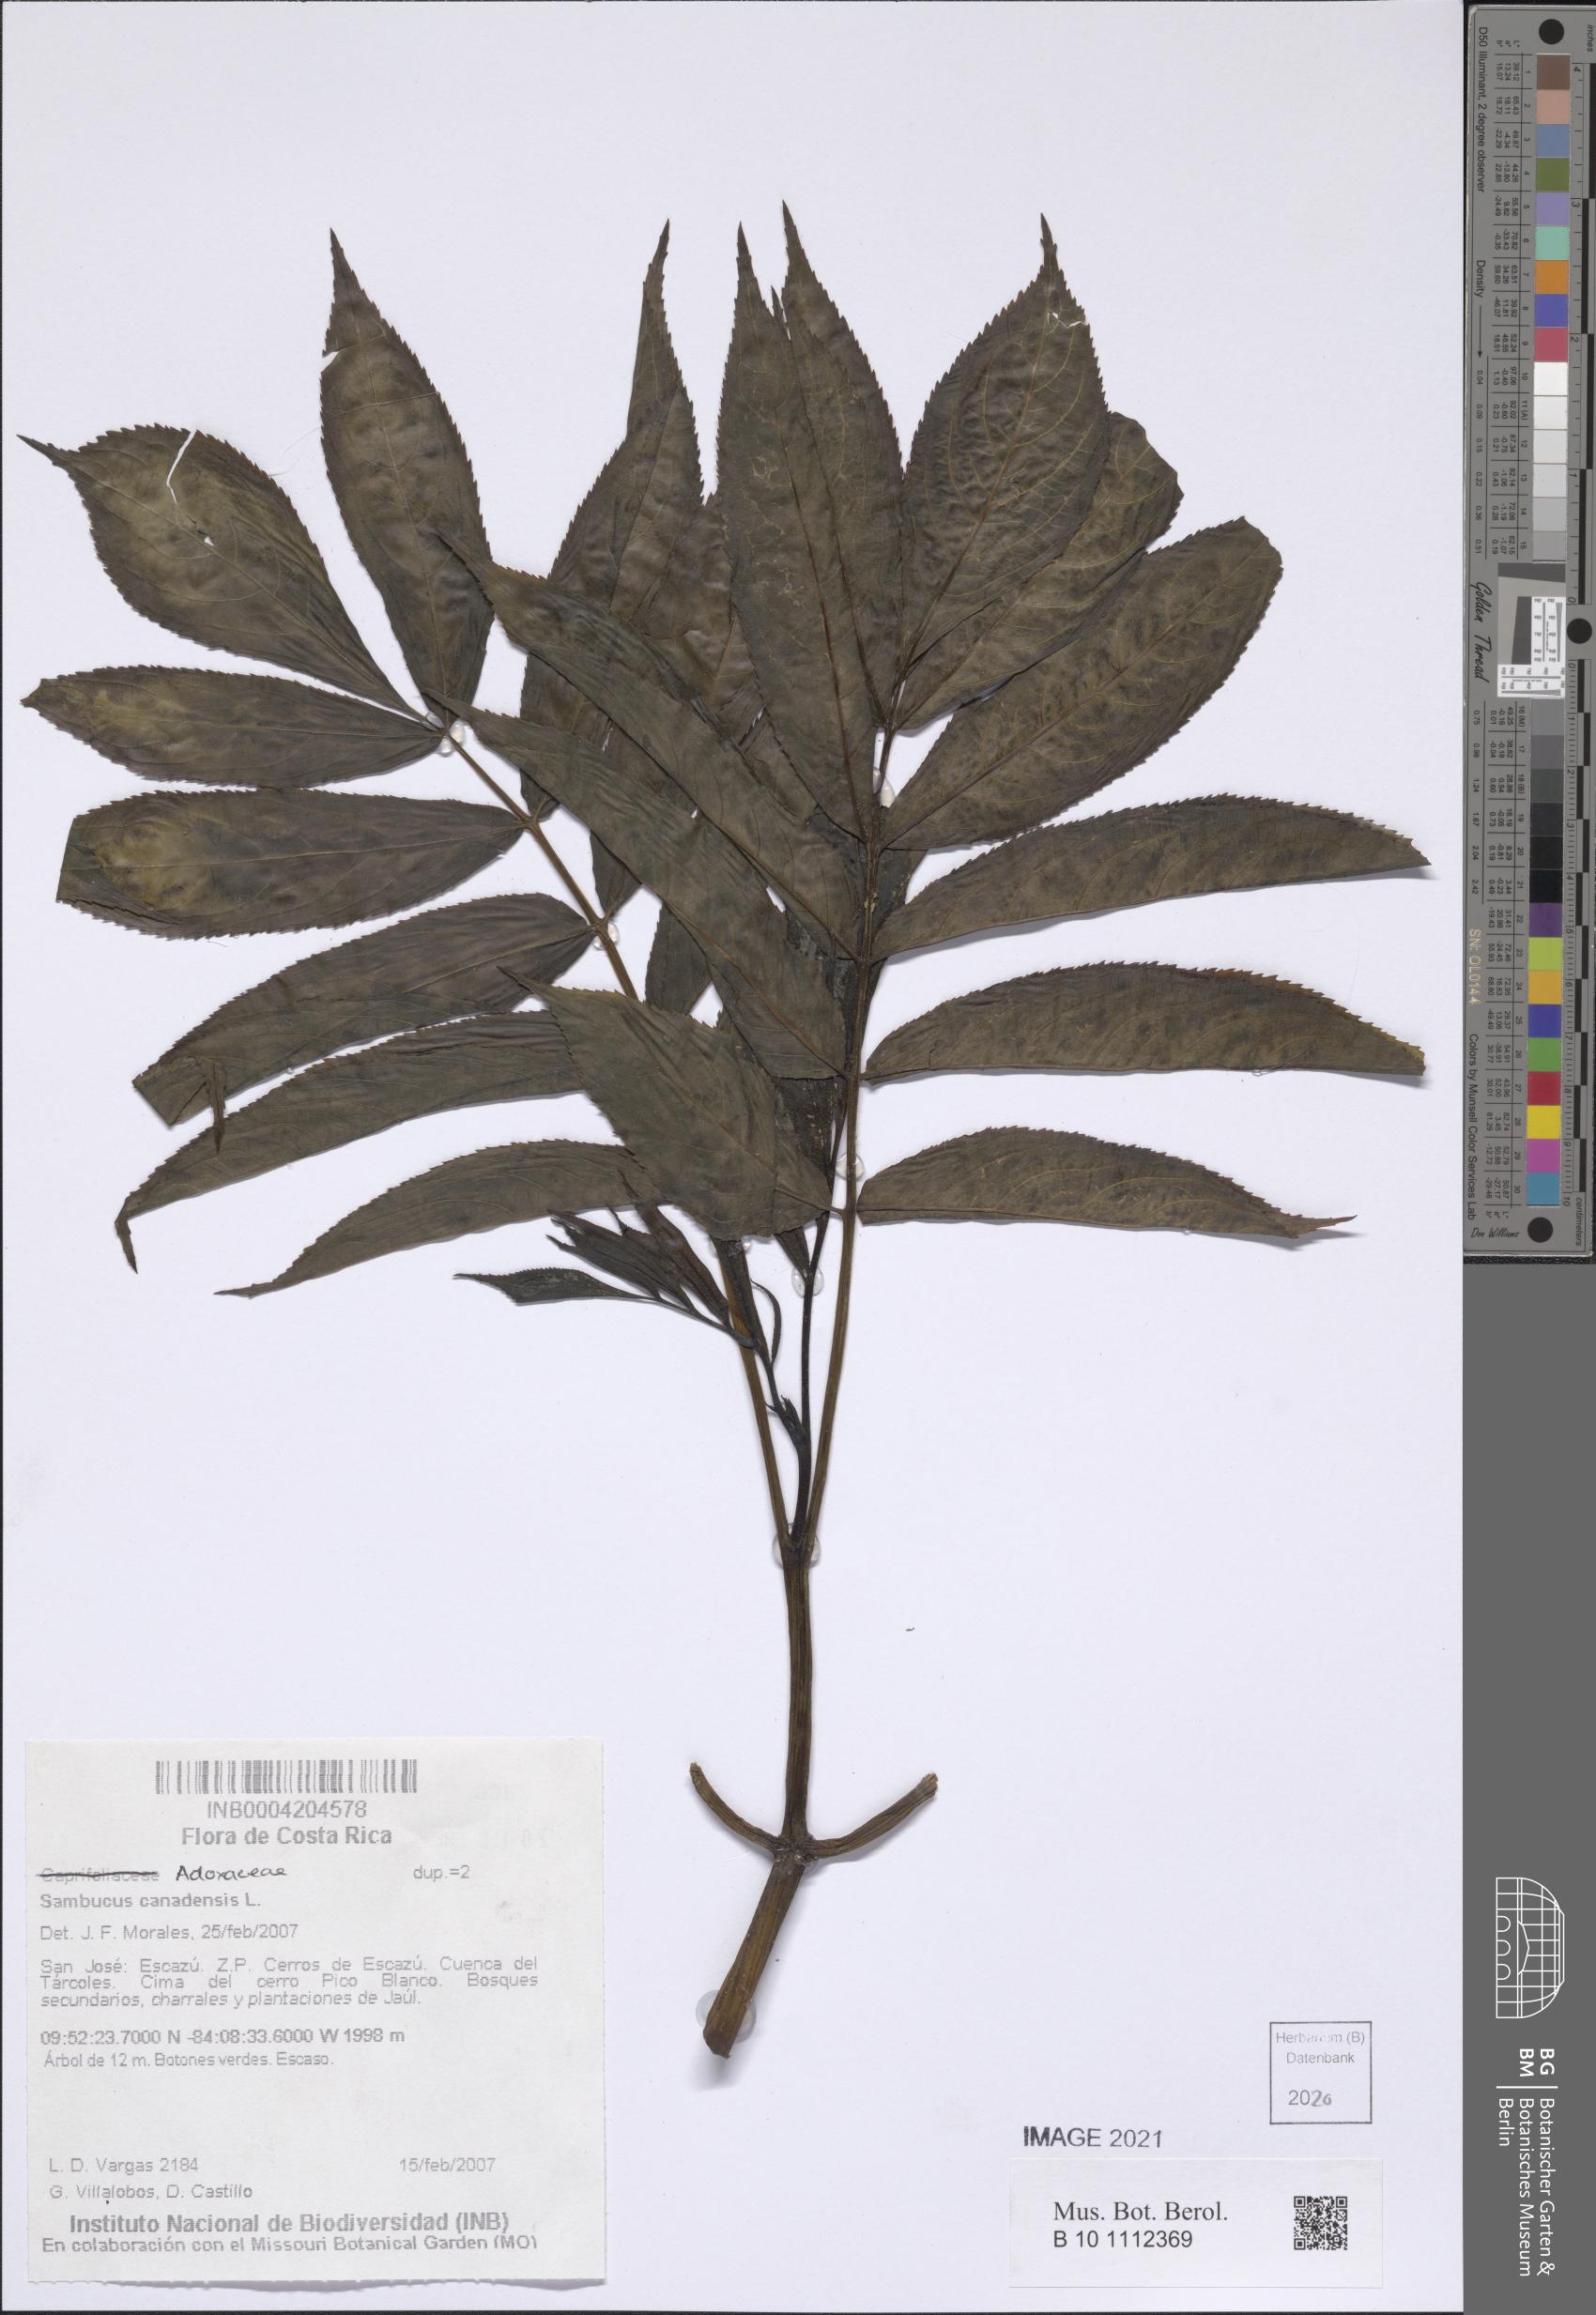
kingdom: Plantae
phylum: Tracheophyta
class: Magnoliopsida
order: Dipsacales
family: Viburnaceae
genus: Sambucus
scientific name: Sambucus canadensis
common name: American elder
